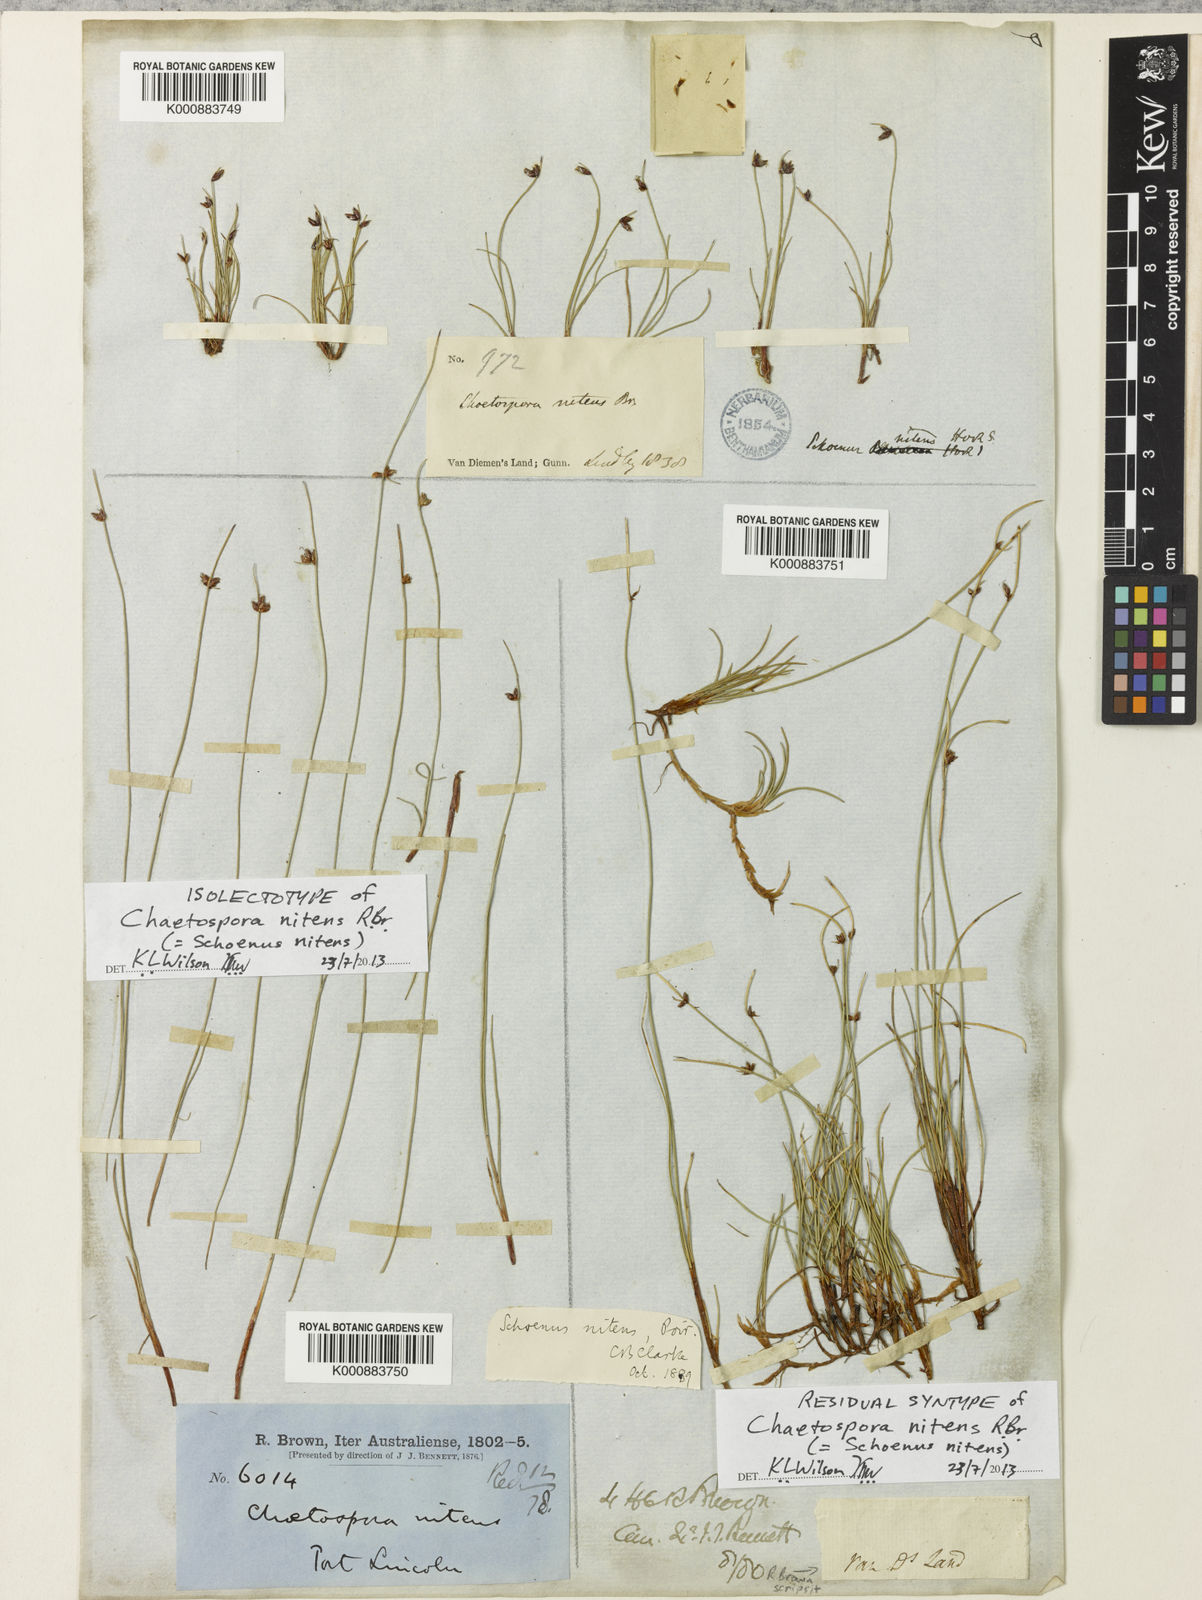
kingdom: Plantae
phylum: Tracheophyta
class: Liliopsida
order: Poales
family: Cyperaceae
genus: Schoenus
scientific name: Schoenus
